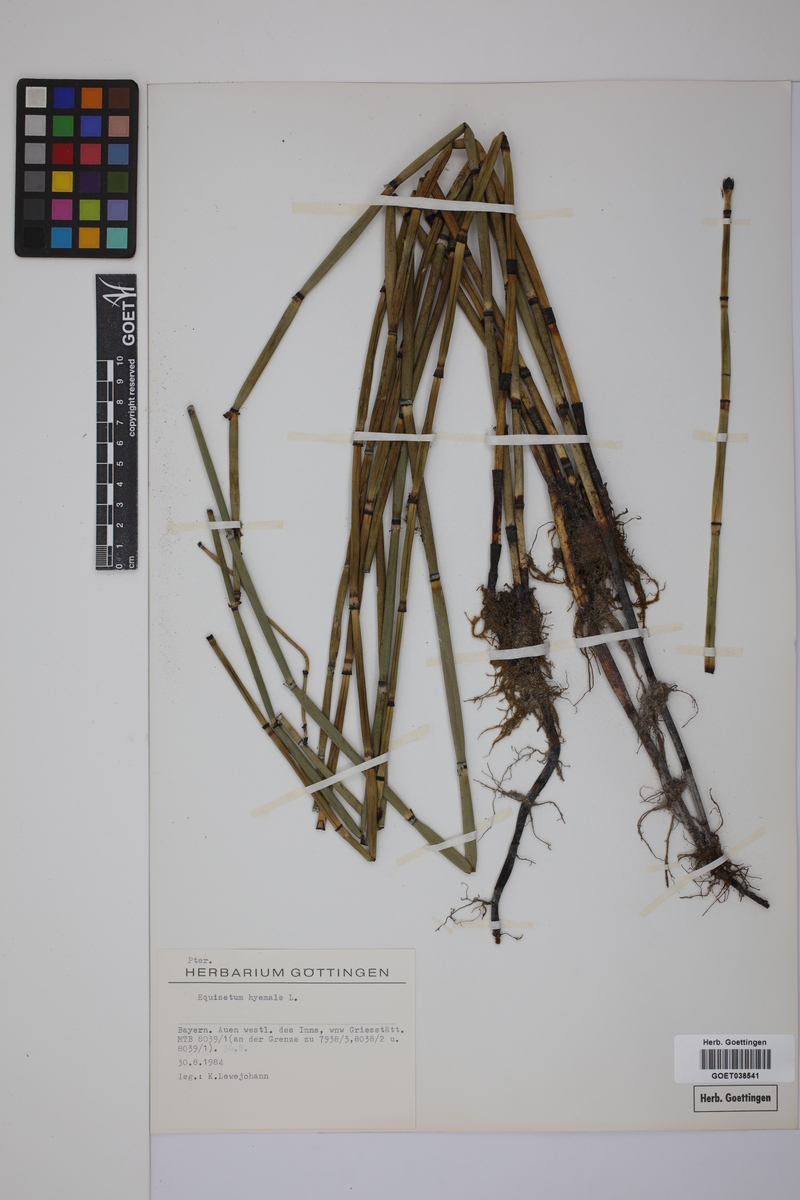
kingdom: Plantae
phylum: Tracheophyta
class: Polypodiopsida
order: Equisetales
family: Equisetaceae
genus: Equisetum
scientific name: Equisetum hyemale
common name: Rough horsetail
